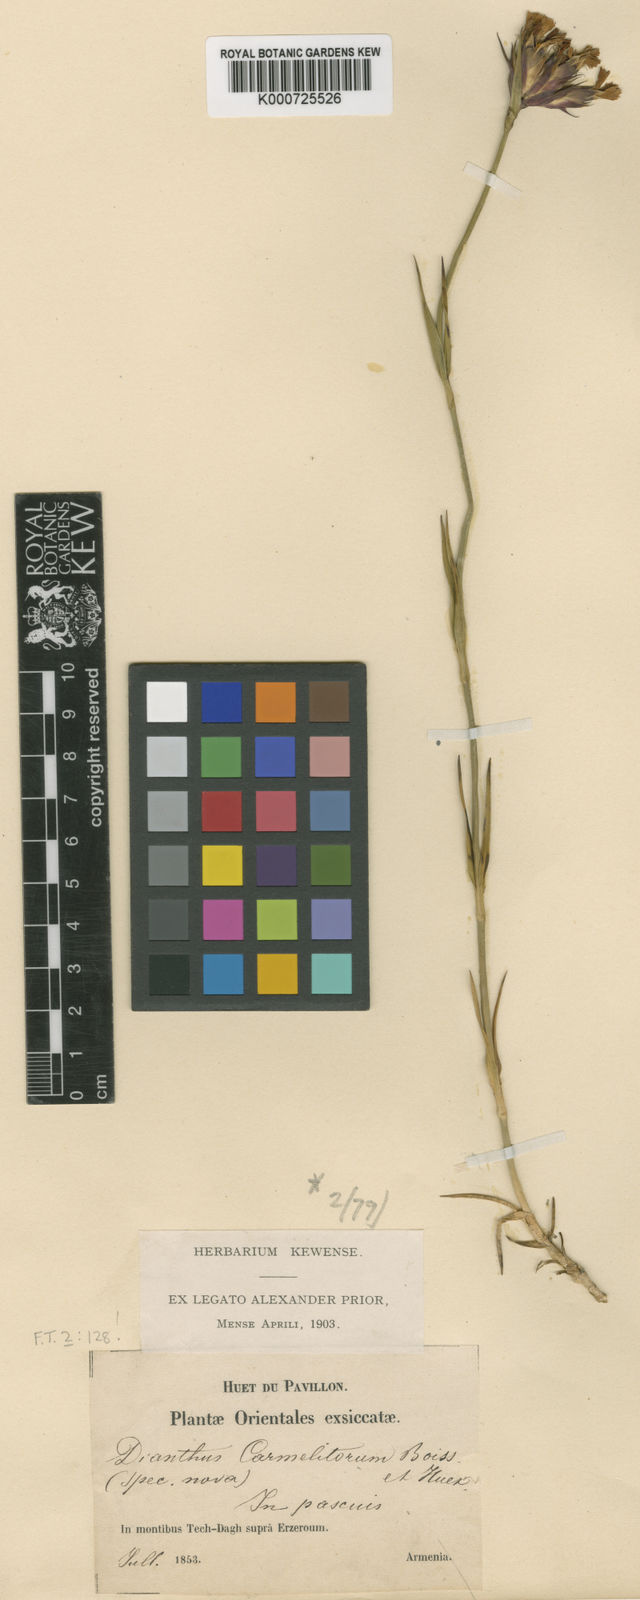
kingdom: Plantae
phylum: Tracheophyta
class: Magnoliopsida
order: Caryophyllales
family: Caryophyllaceae
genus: Dianthus
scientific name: Dianthus carmelitarum
